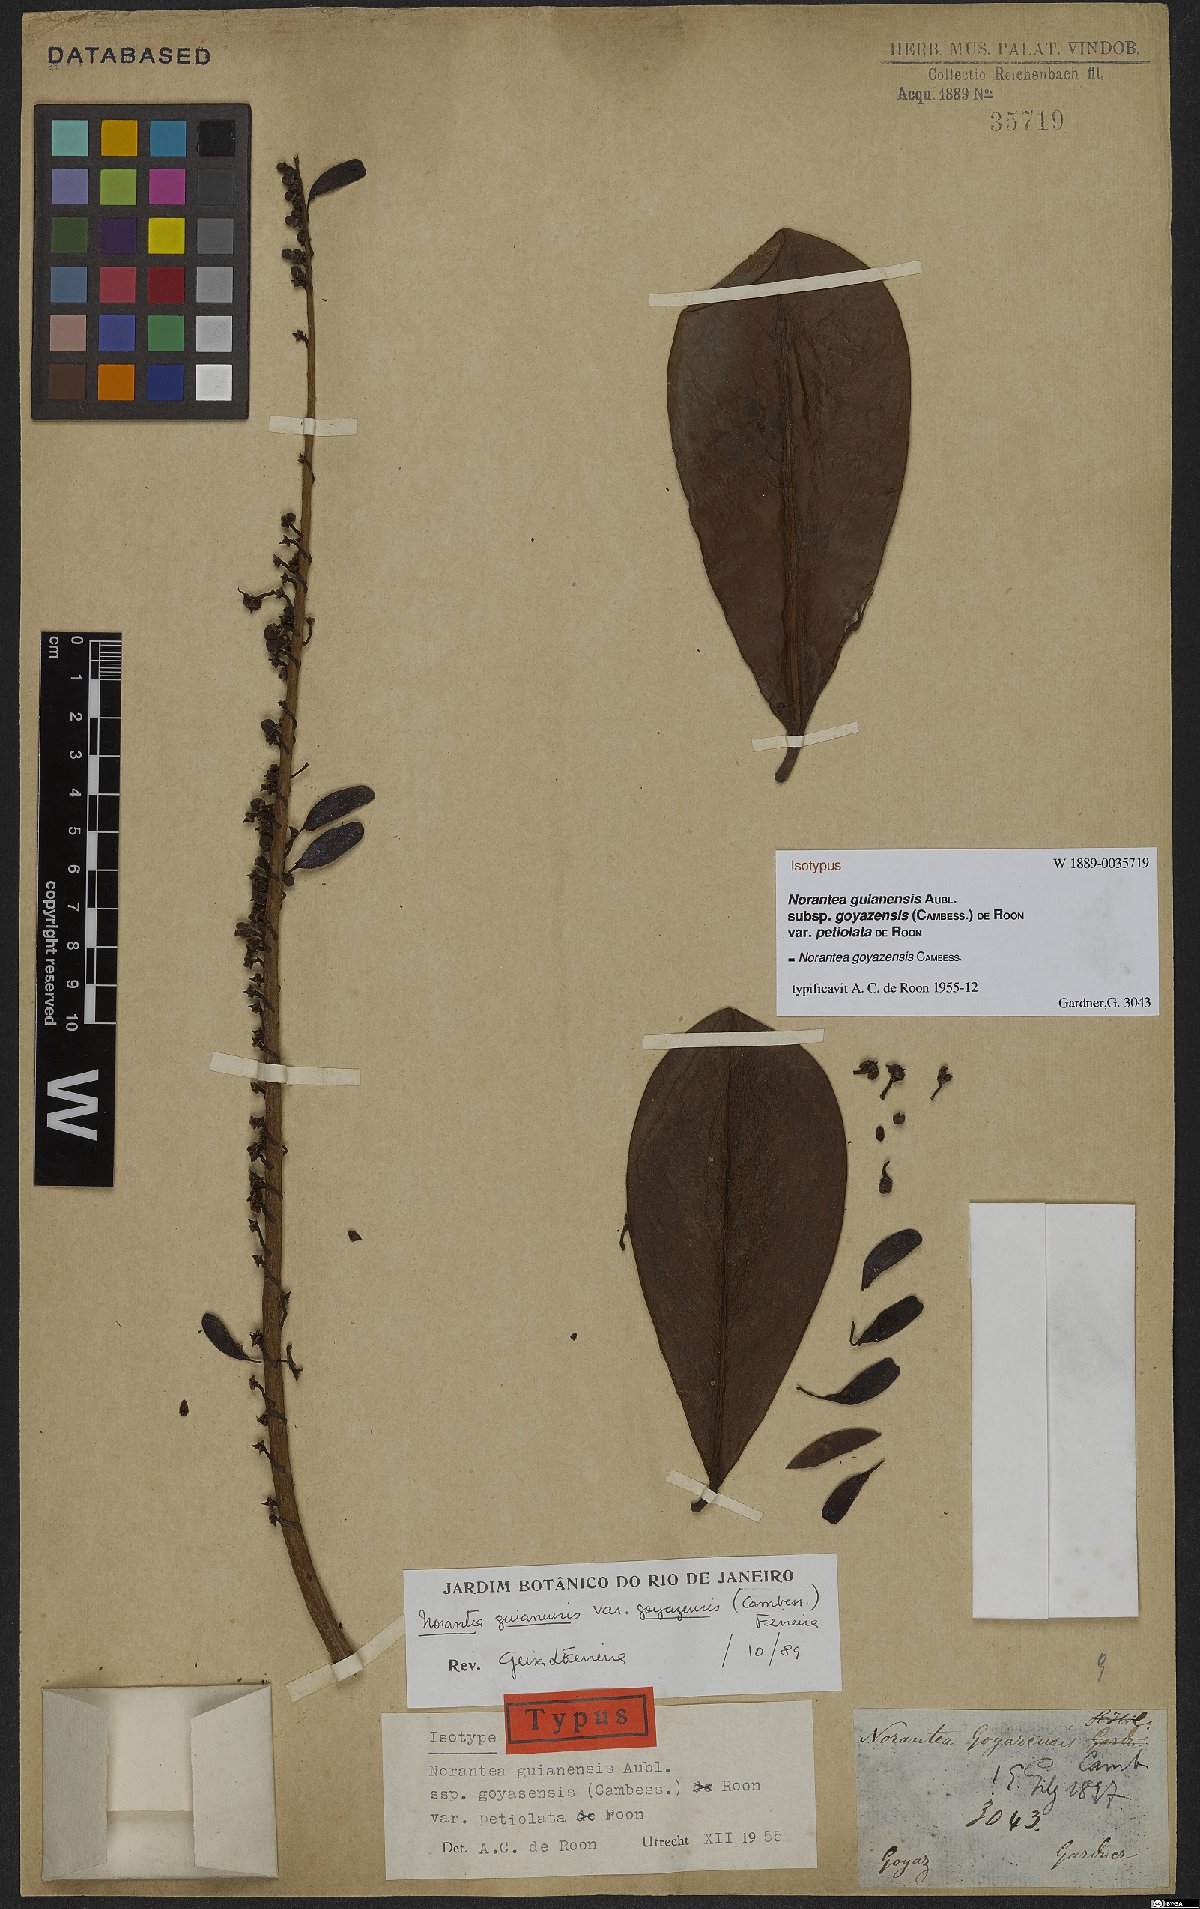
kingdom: Plantae
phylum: Tracheophyta
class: Magnoliopsida
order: Ericales
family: Marcgraviaceae
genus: Norantea
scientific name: Norantea goyazensis
